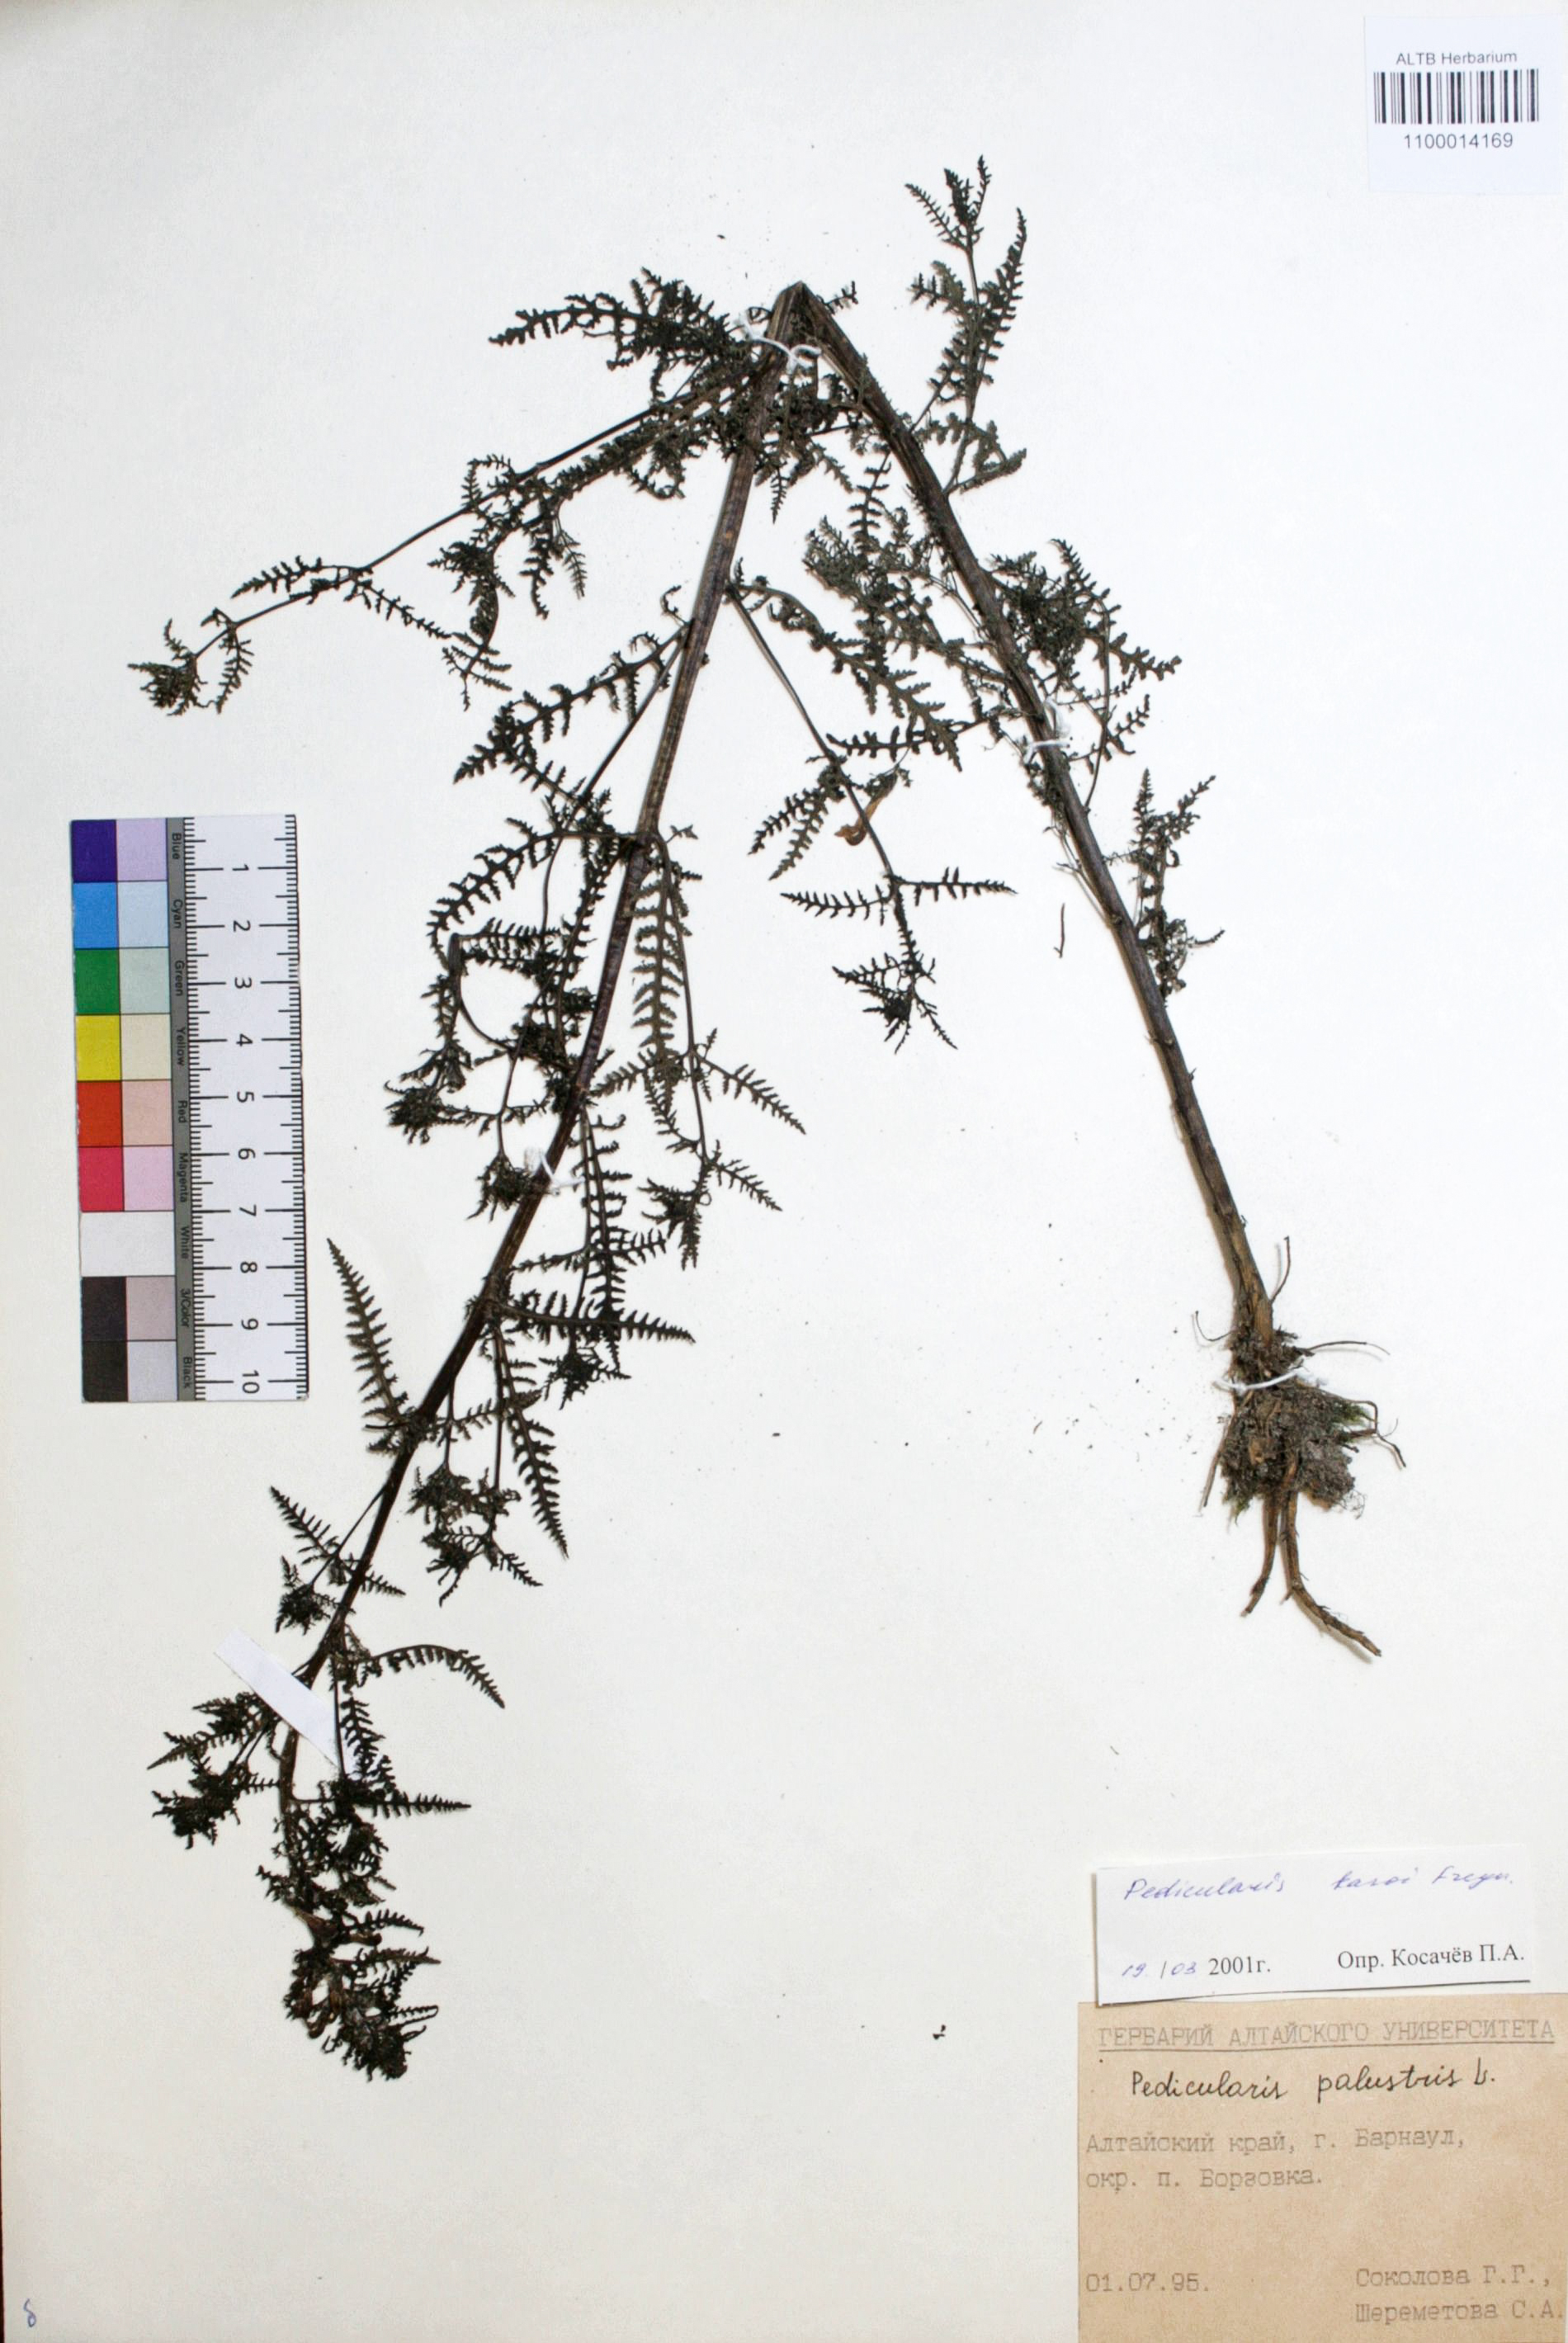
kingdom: Plantae
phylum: Tracheophyta
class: Magnoliopsida
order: Lamiales
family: Orobanchaceae
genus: Pedicularis
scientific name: Pedicularis karoi
